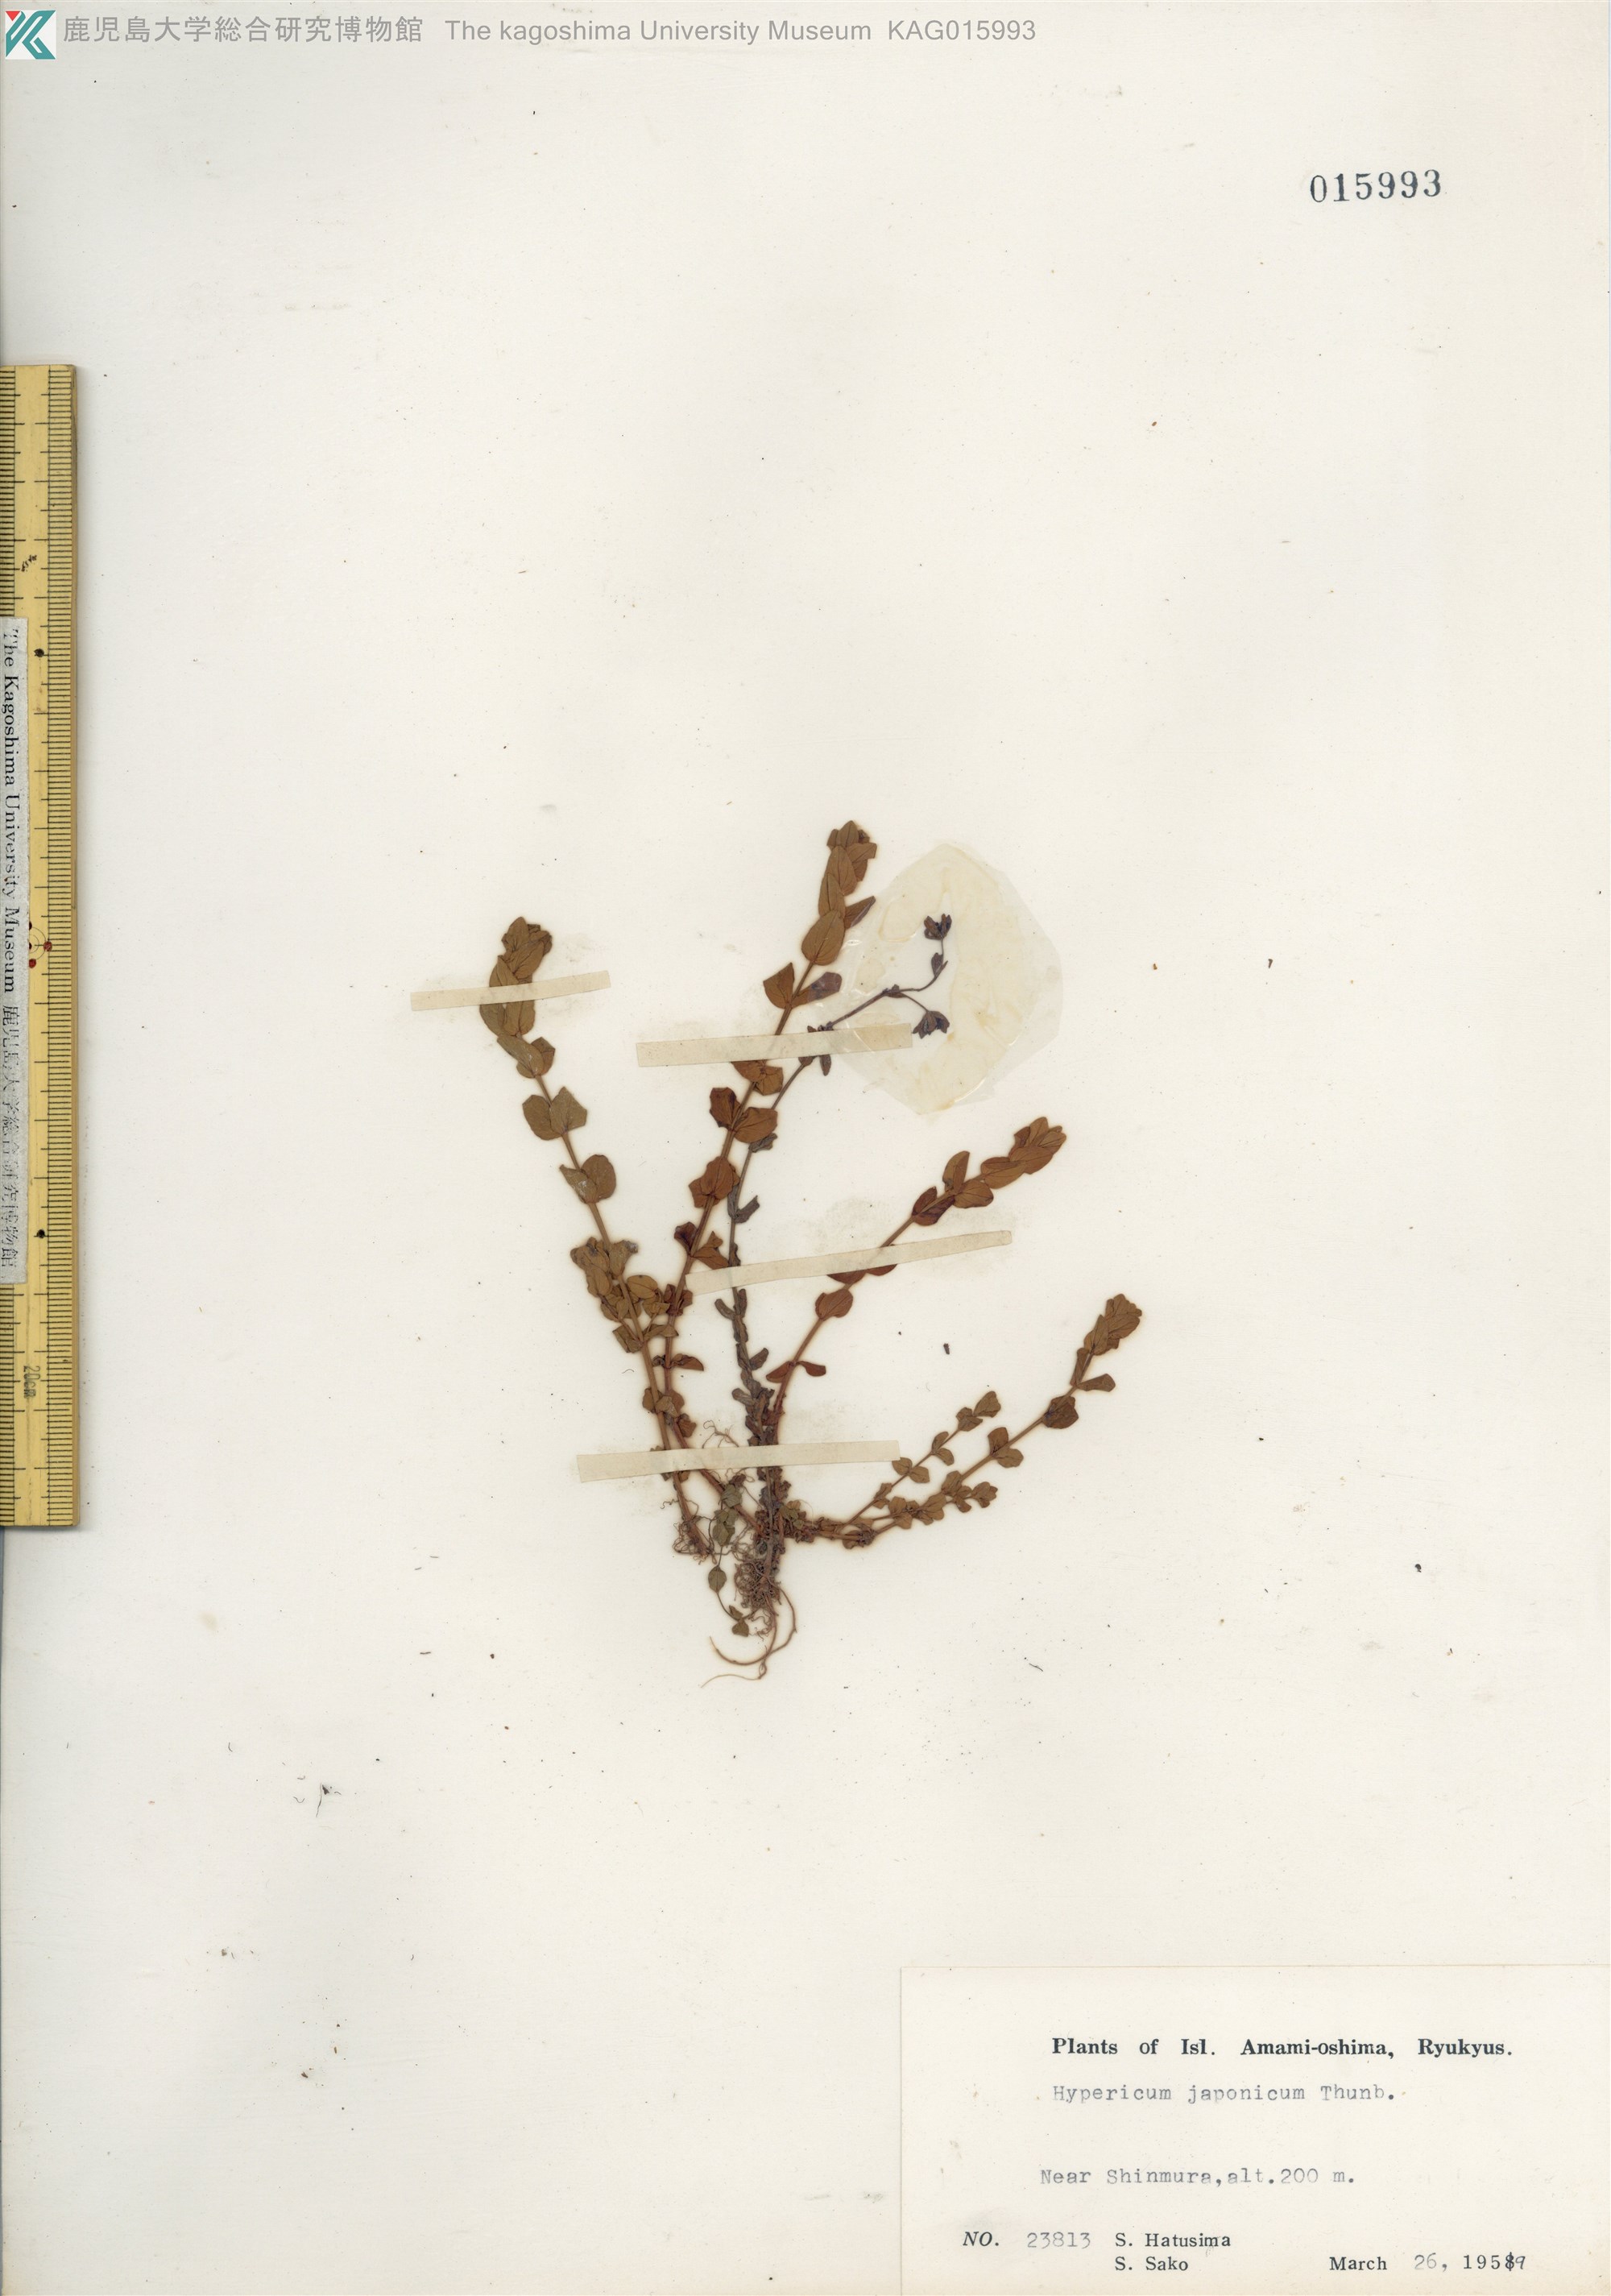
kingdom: Plantae
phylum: Tracheophyta
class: Magnoliopsida
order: Malpighiales
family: Hypericaceae
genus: Hypericum
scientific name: Hypericum japonicum
